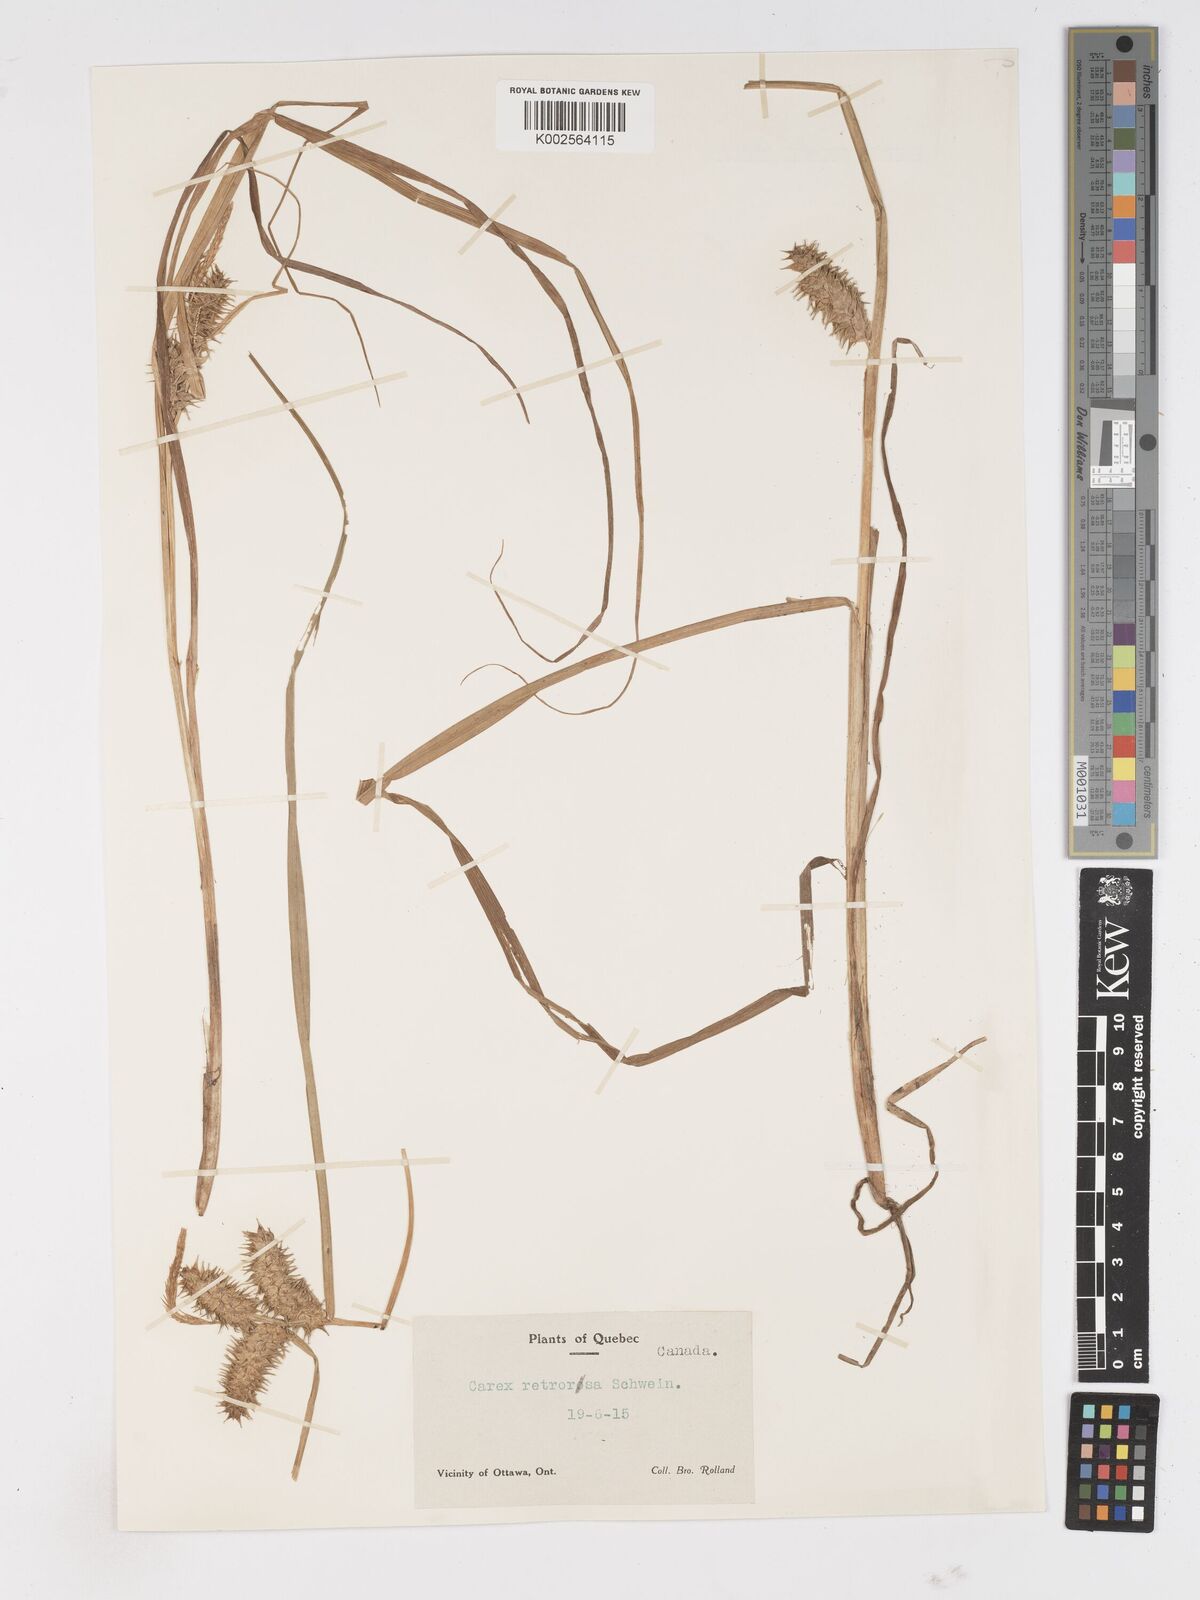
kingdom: Plantae
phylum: Tracheophyta
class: Liliopsida
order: Poales
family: Cyperaceae
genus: Carex
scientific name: Carex retrorsa
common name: Knot-sheath sedge
